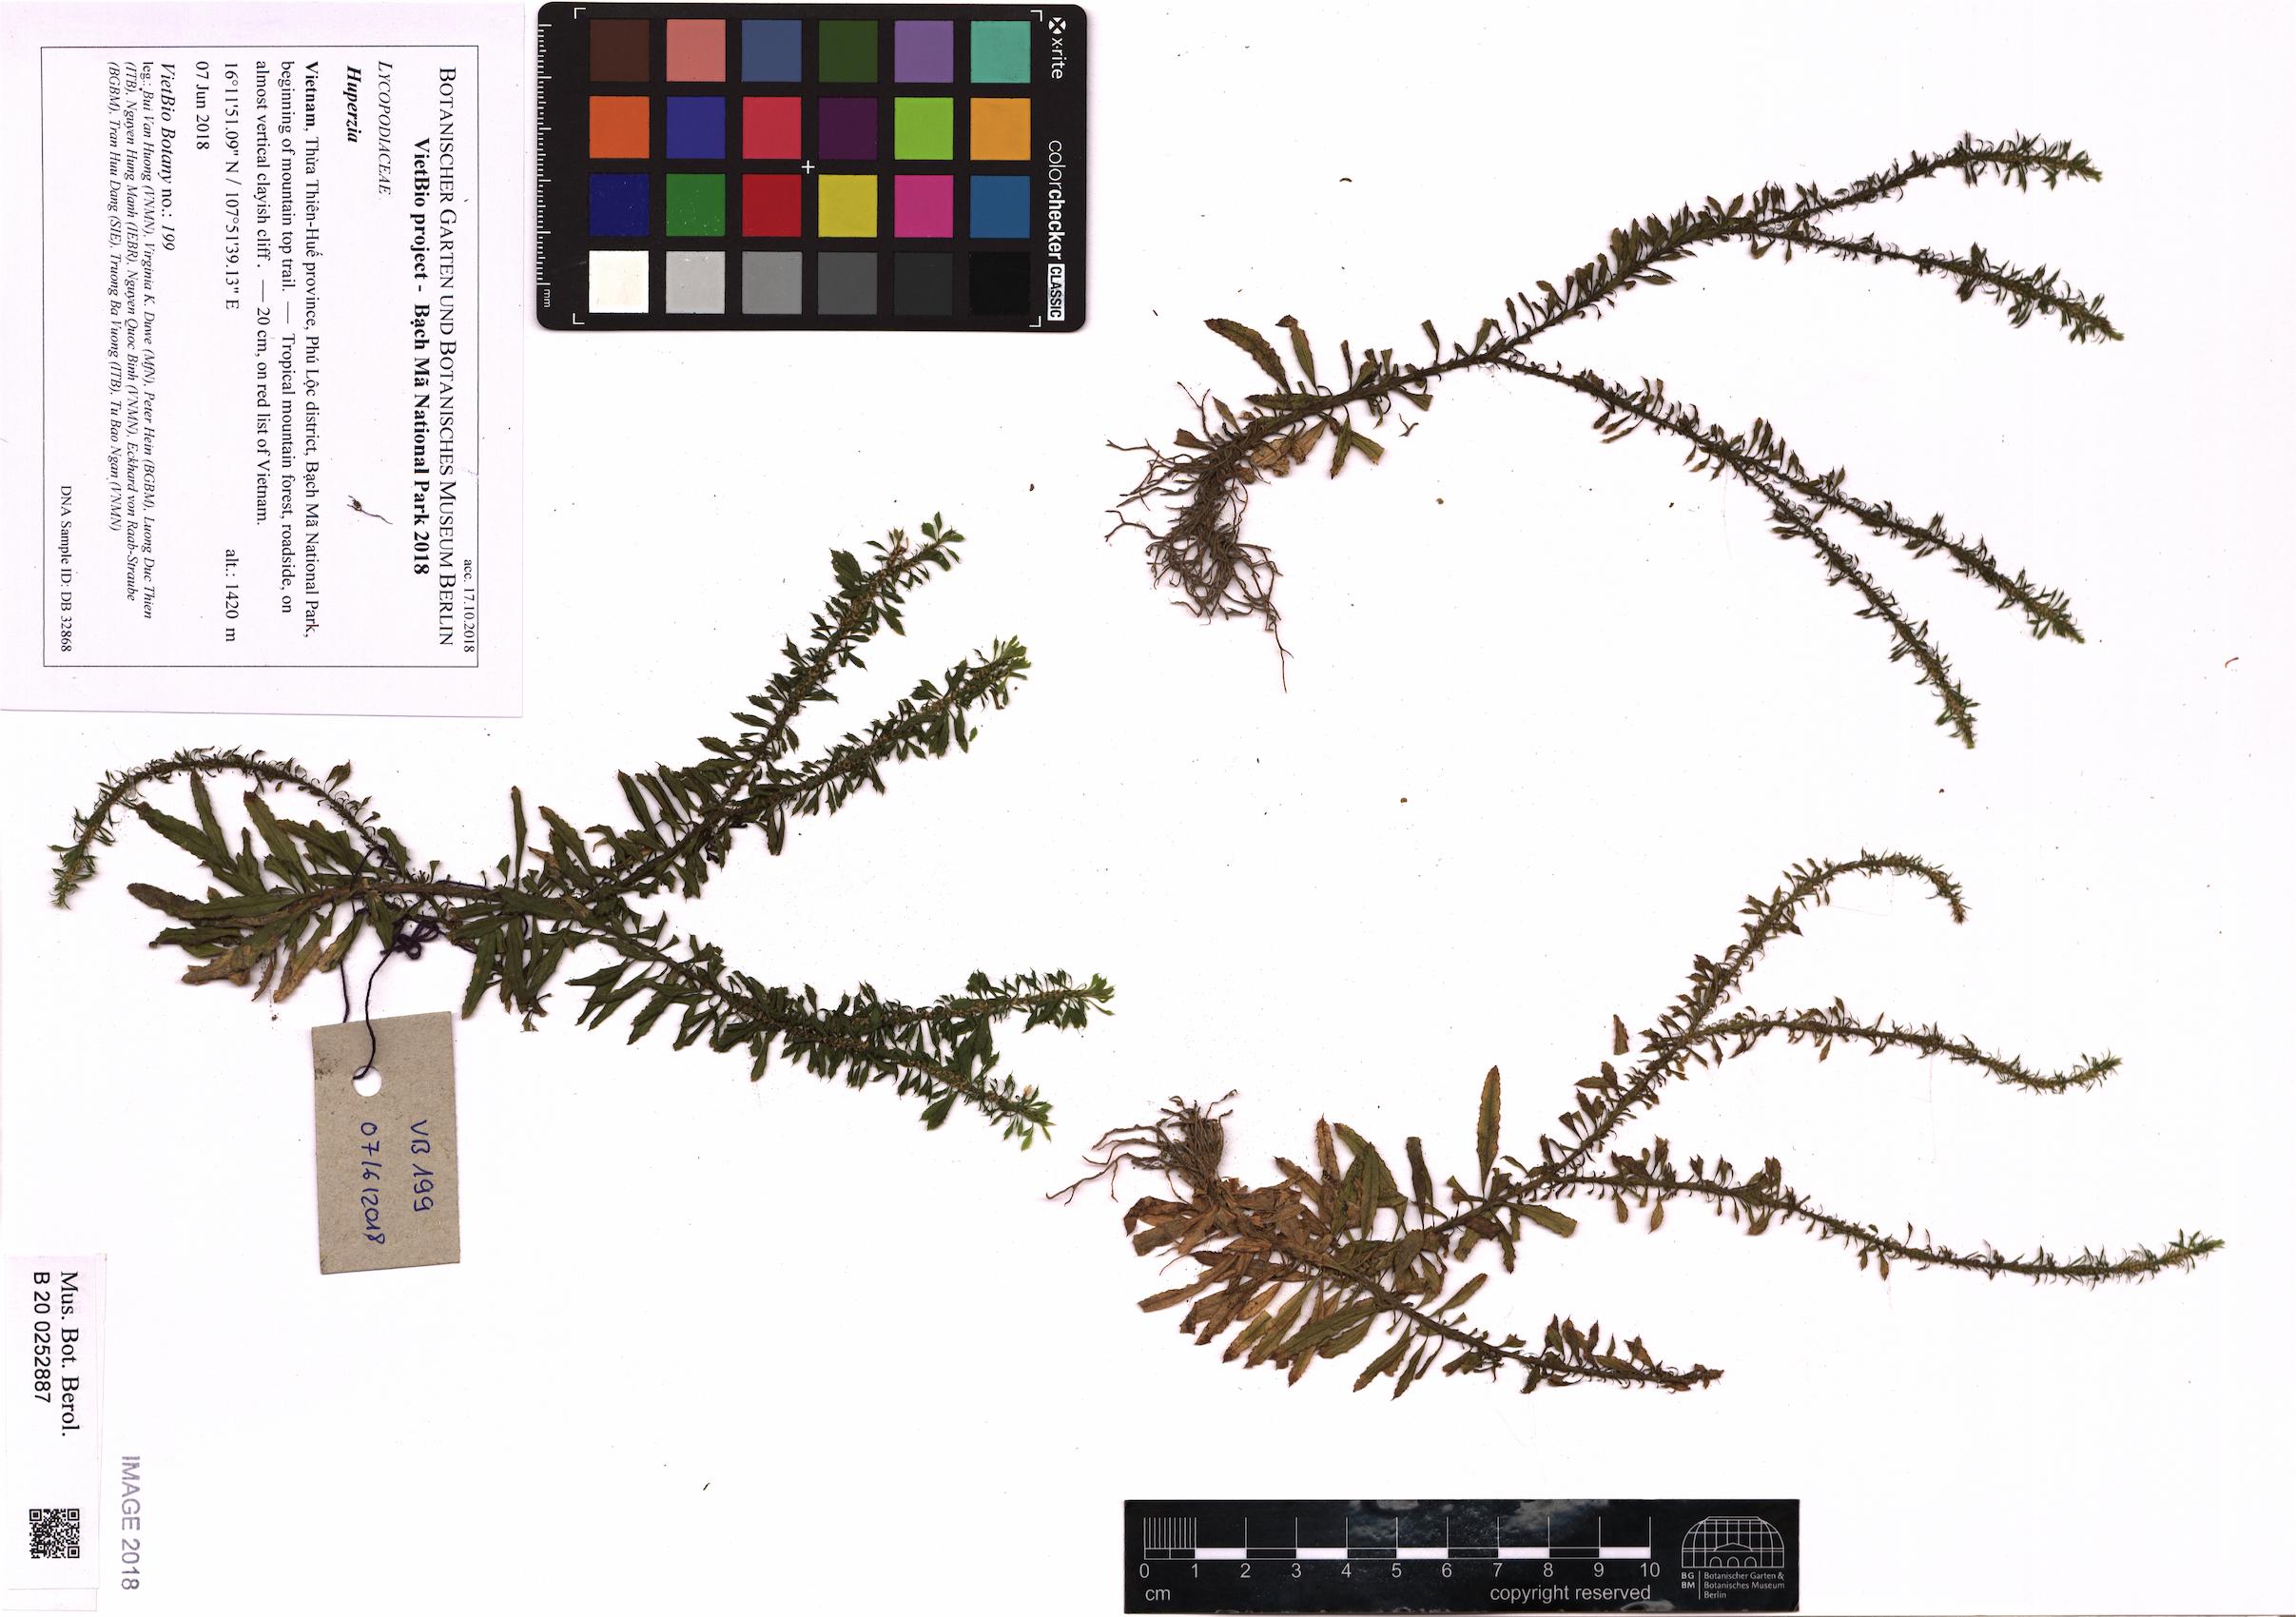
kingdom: Plantae
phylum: Tracheophyta
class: Lycopodiopsida
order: Lycopodiales
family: Lycopodiaceae
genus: Huperzia
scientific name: Huperzia
